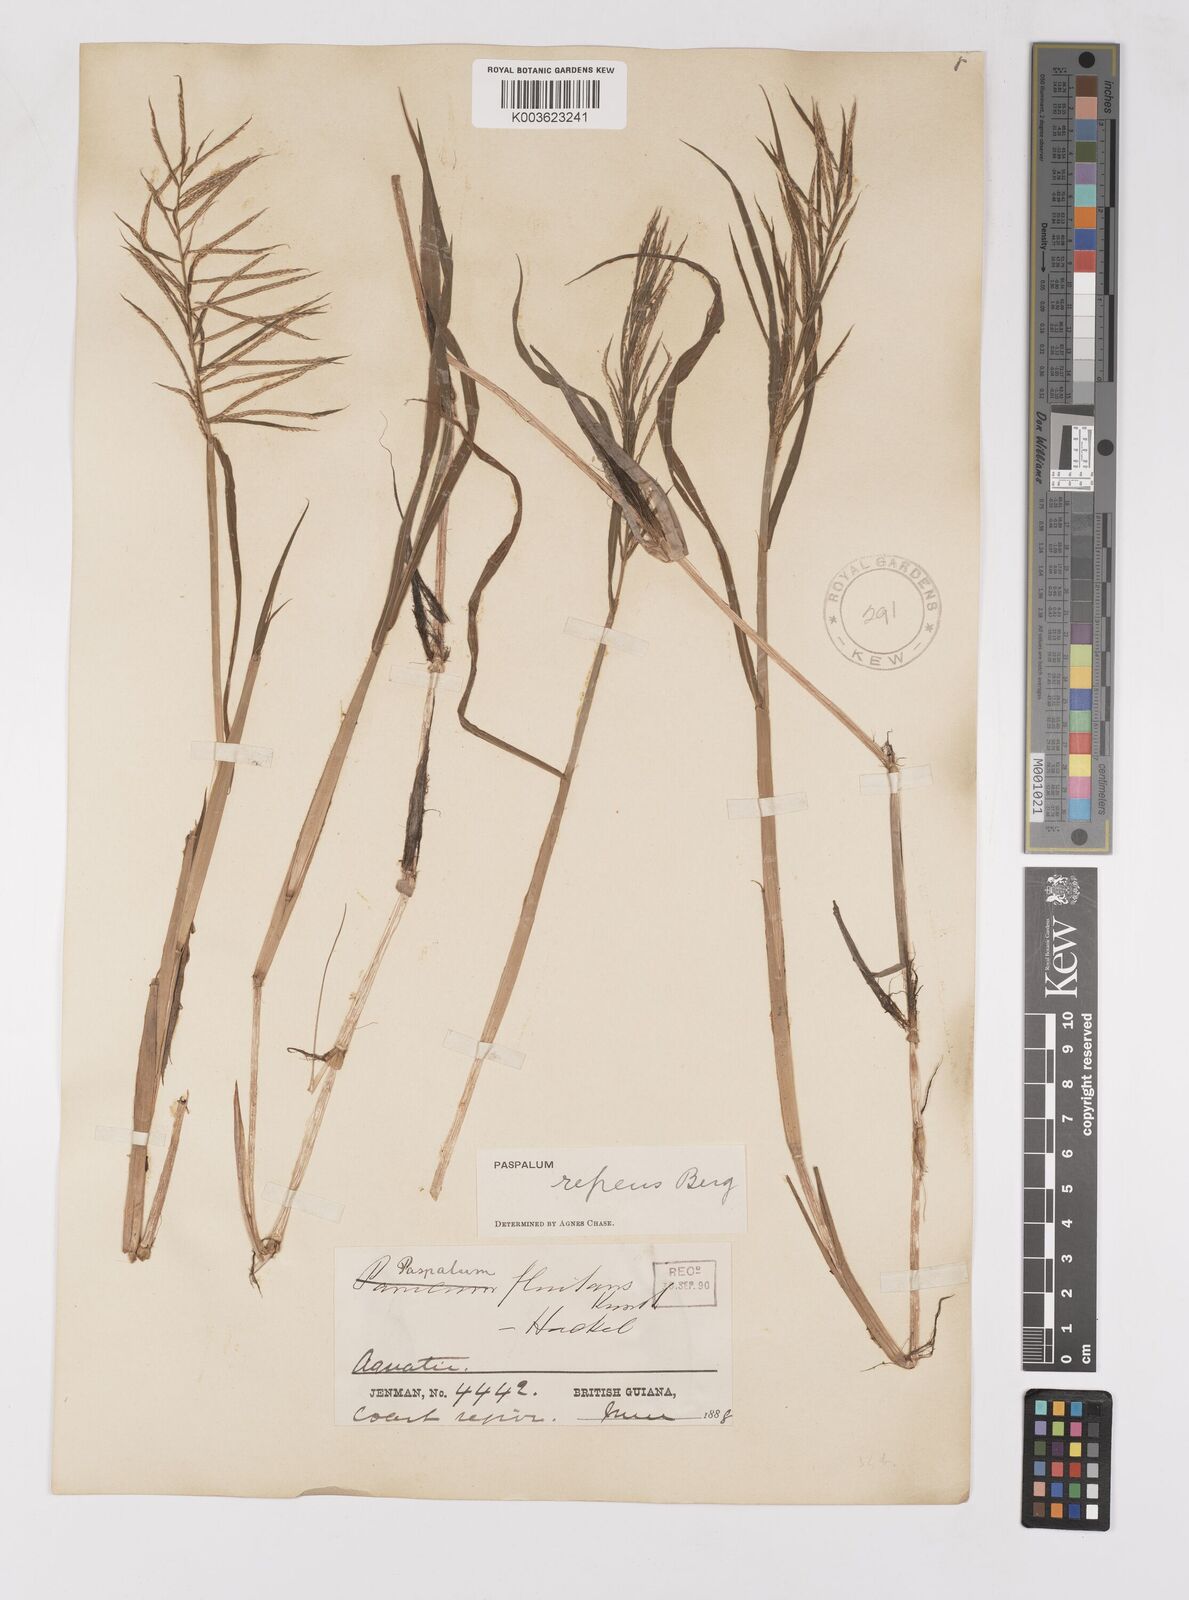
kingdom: Plantae
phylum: Tracheophyta
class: Liliopsida
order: Poales
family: Poaceae
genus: Paspalum
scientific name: Paspalum repens
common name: Water paspalum
